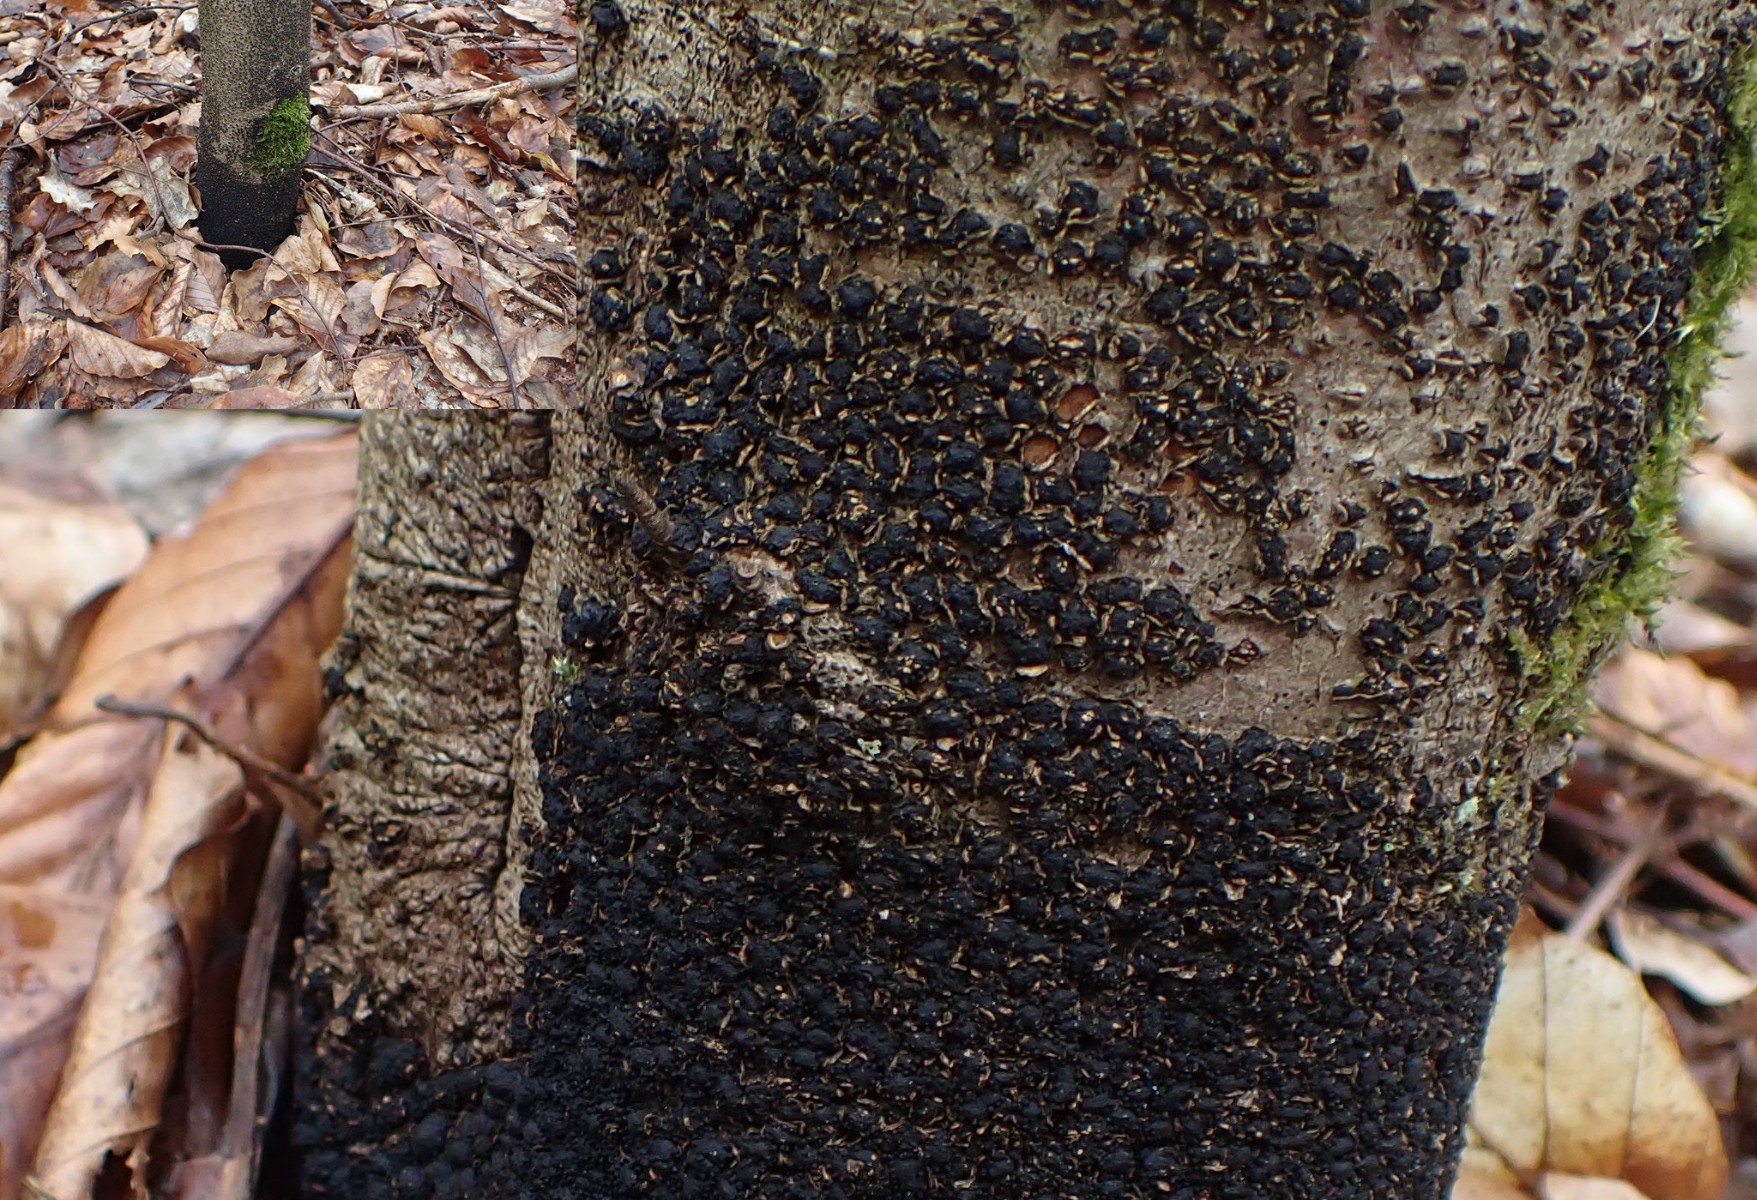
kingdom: Fungi
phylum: Ascomycota
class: Sordariomycetes
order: Xylariales
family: Melogrammataceae
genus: Melogramma
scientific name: Melogramma spiniferum
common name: bøgefod-kulhals
